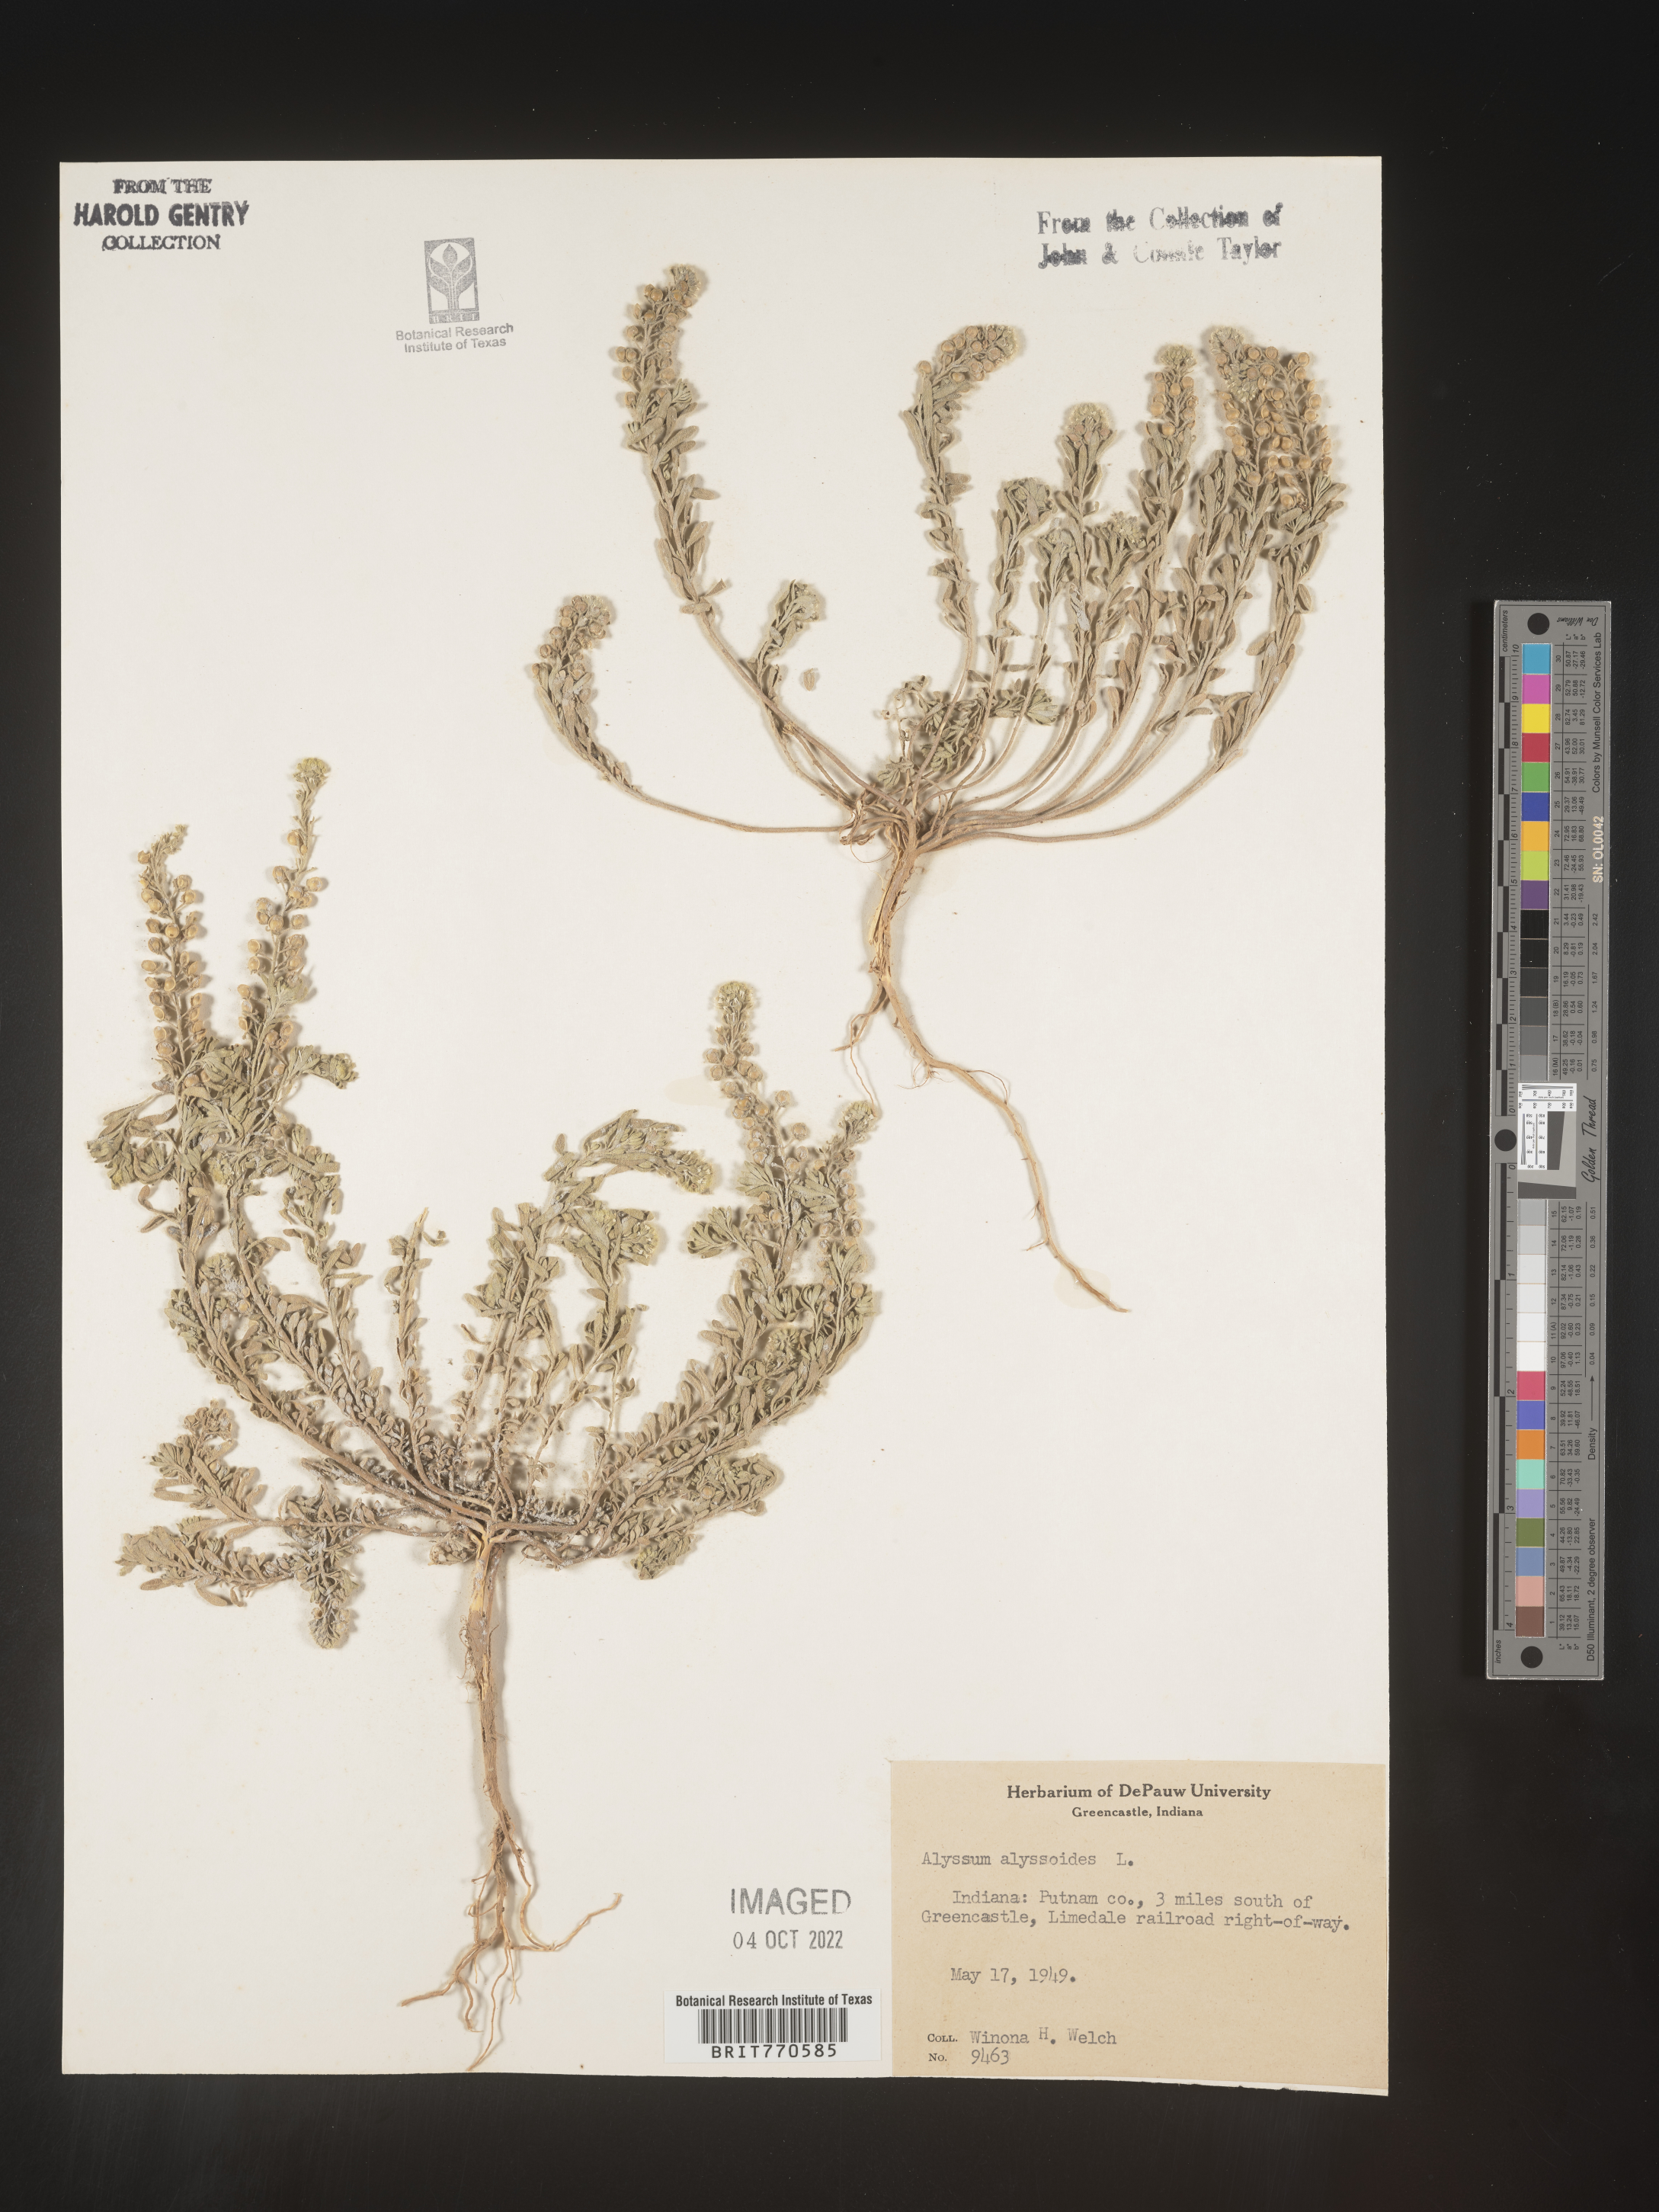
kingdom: Plantae
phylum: Tracheophyta
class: Magnoliopsida
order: Brassicales
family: Brassicaceae
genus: Alyssum
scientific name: Alyssum alyssoides
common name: Small alison
